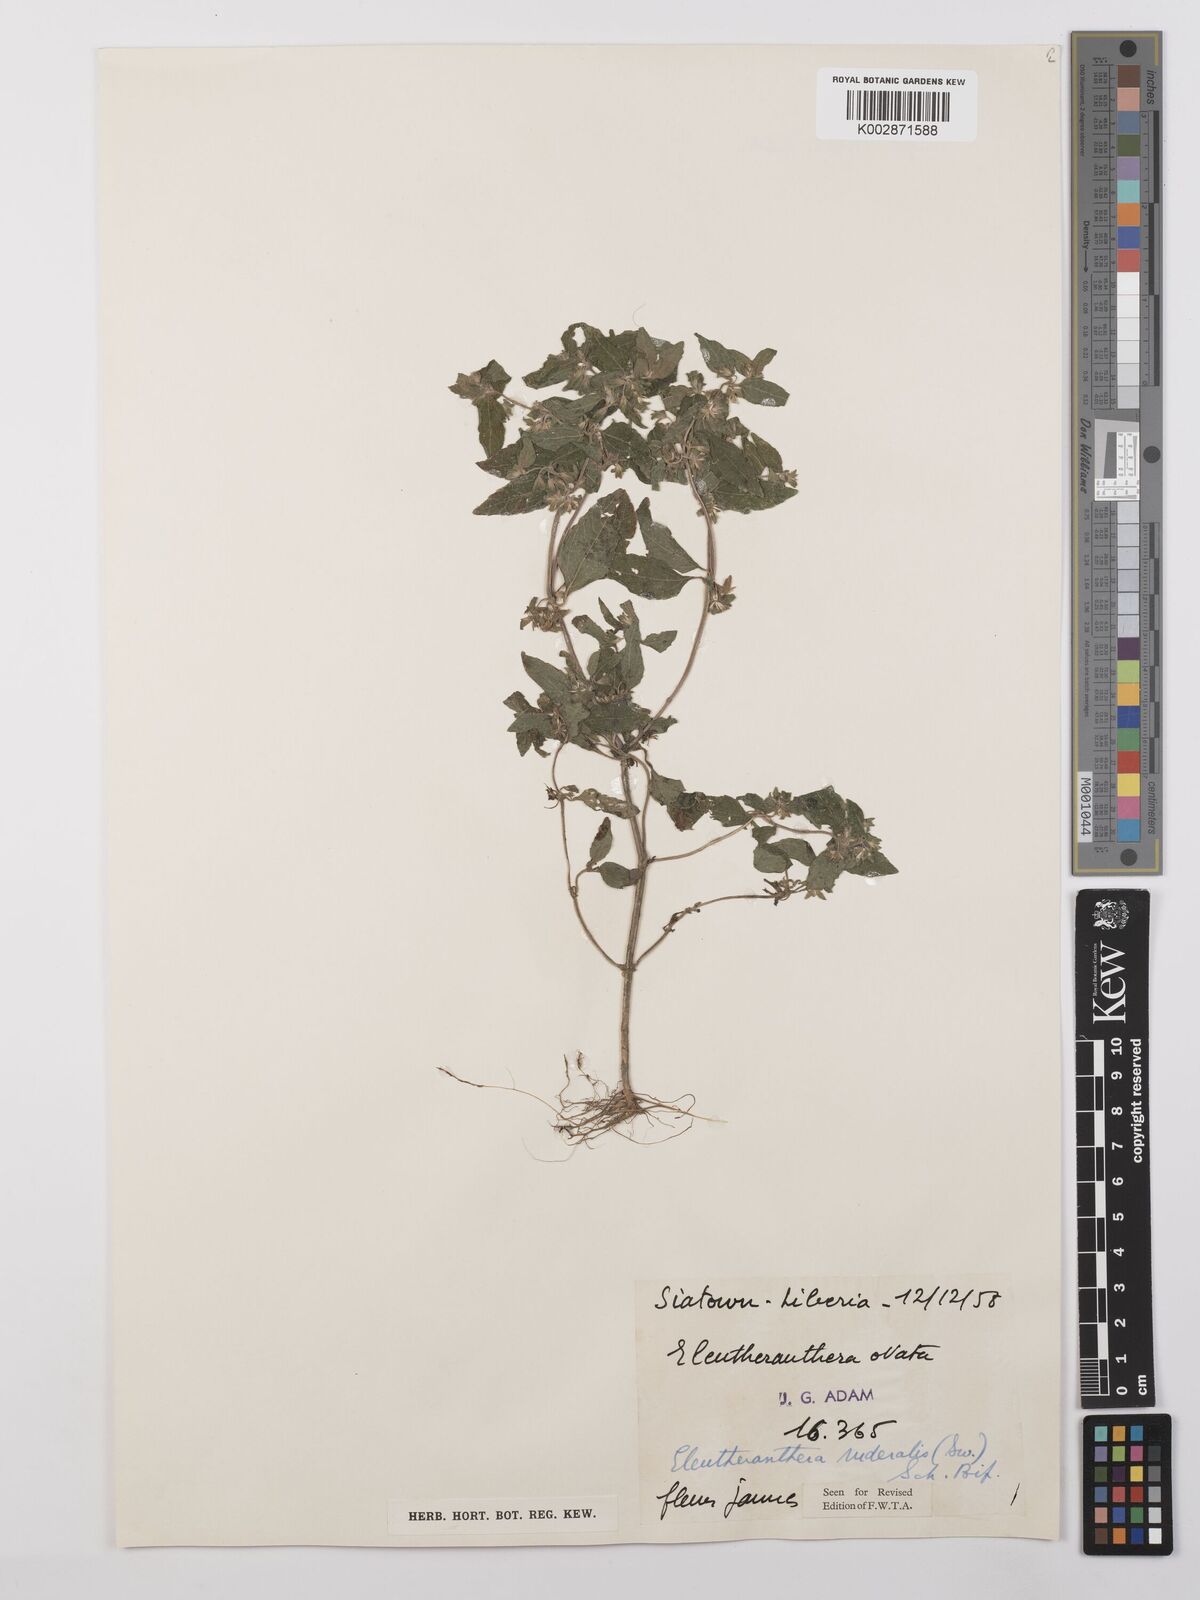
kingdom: Plantae
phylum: Tracheophyta
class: Magnoliopsida
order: Asterales
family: Asteraceae
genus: Eleutheranthera
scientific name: Eleutheranthera ruderalis
